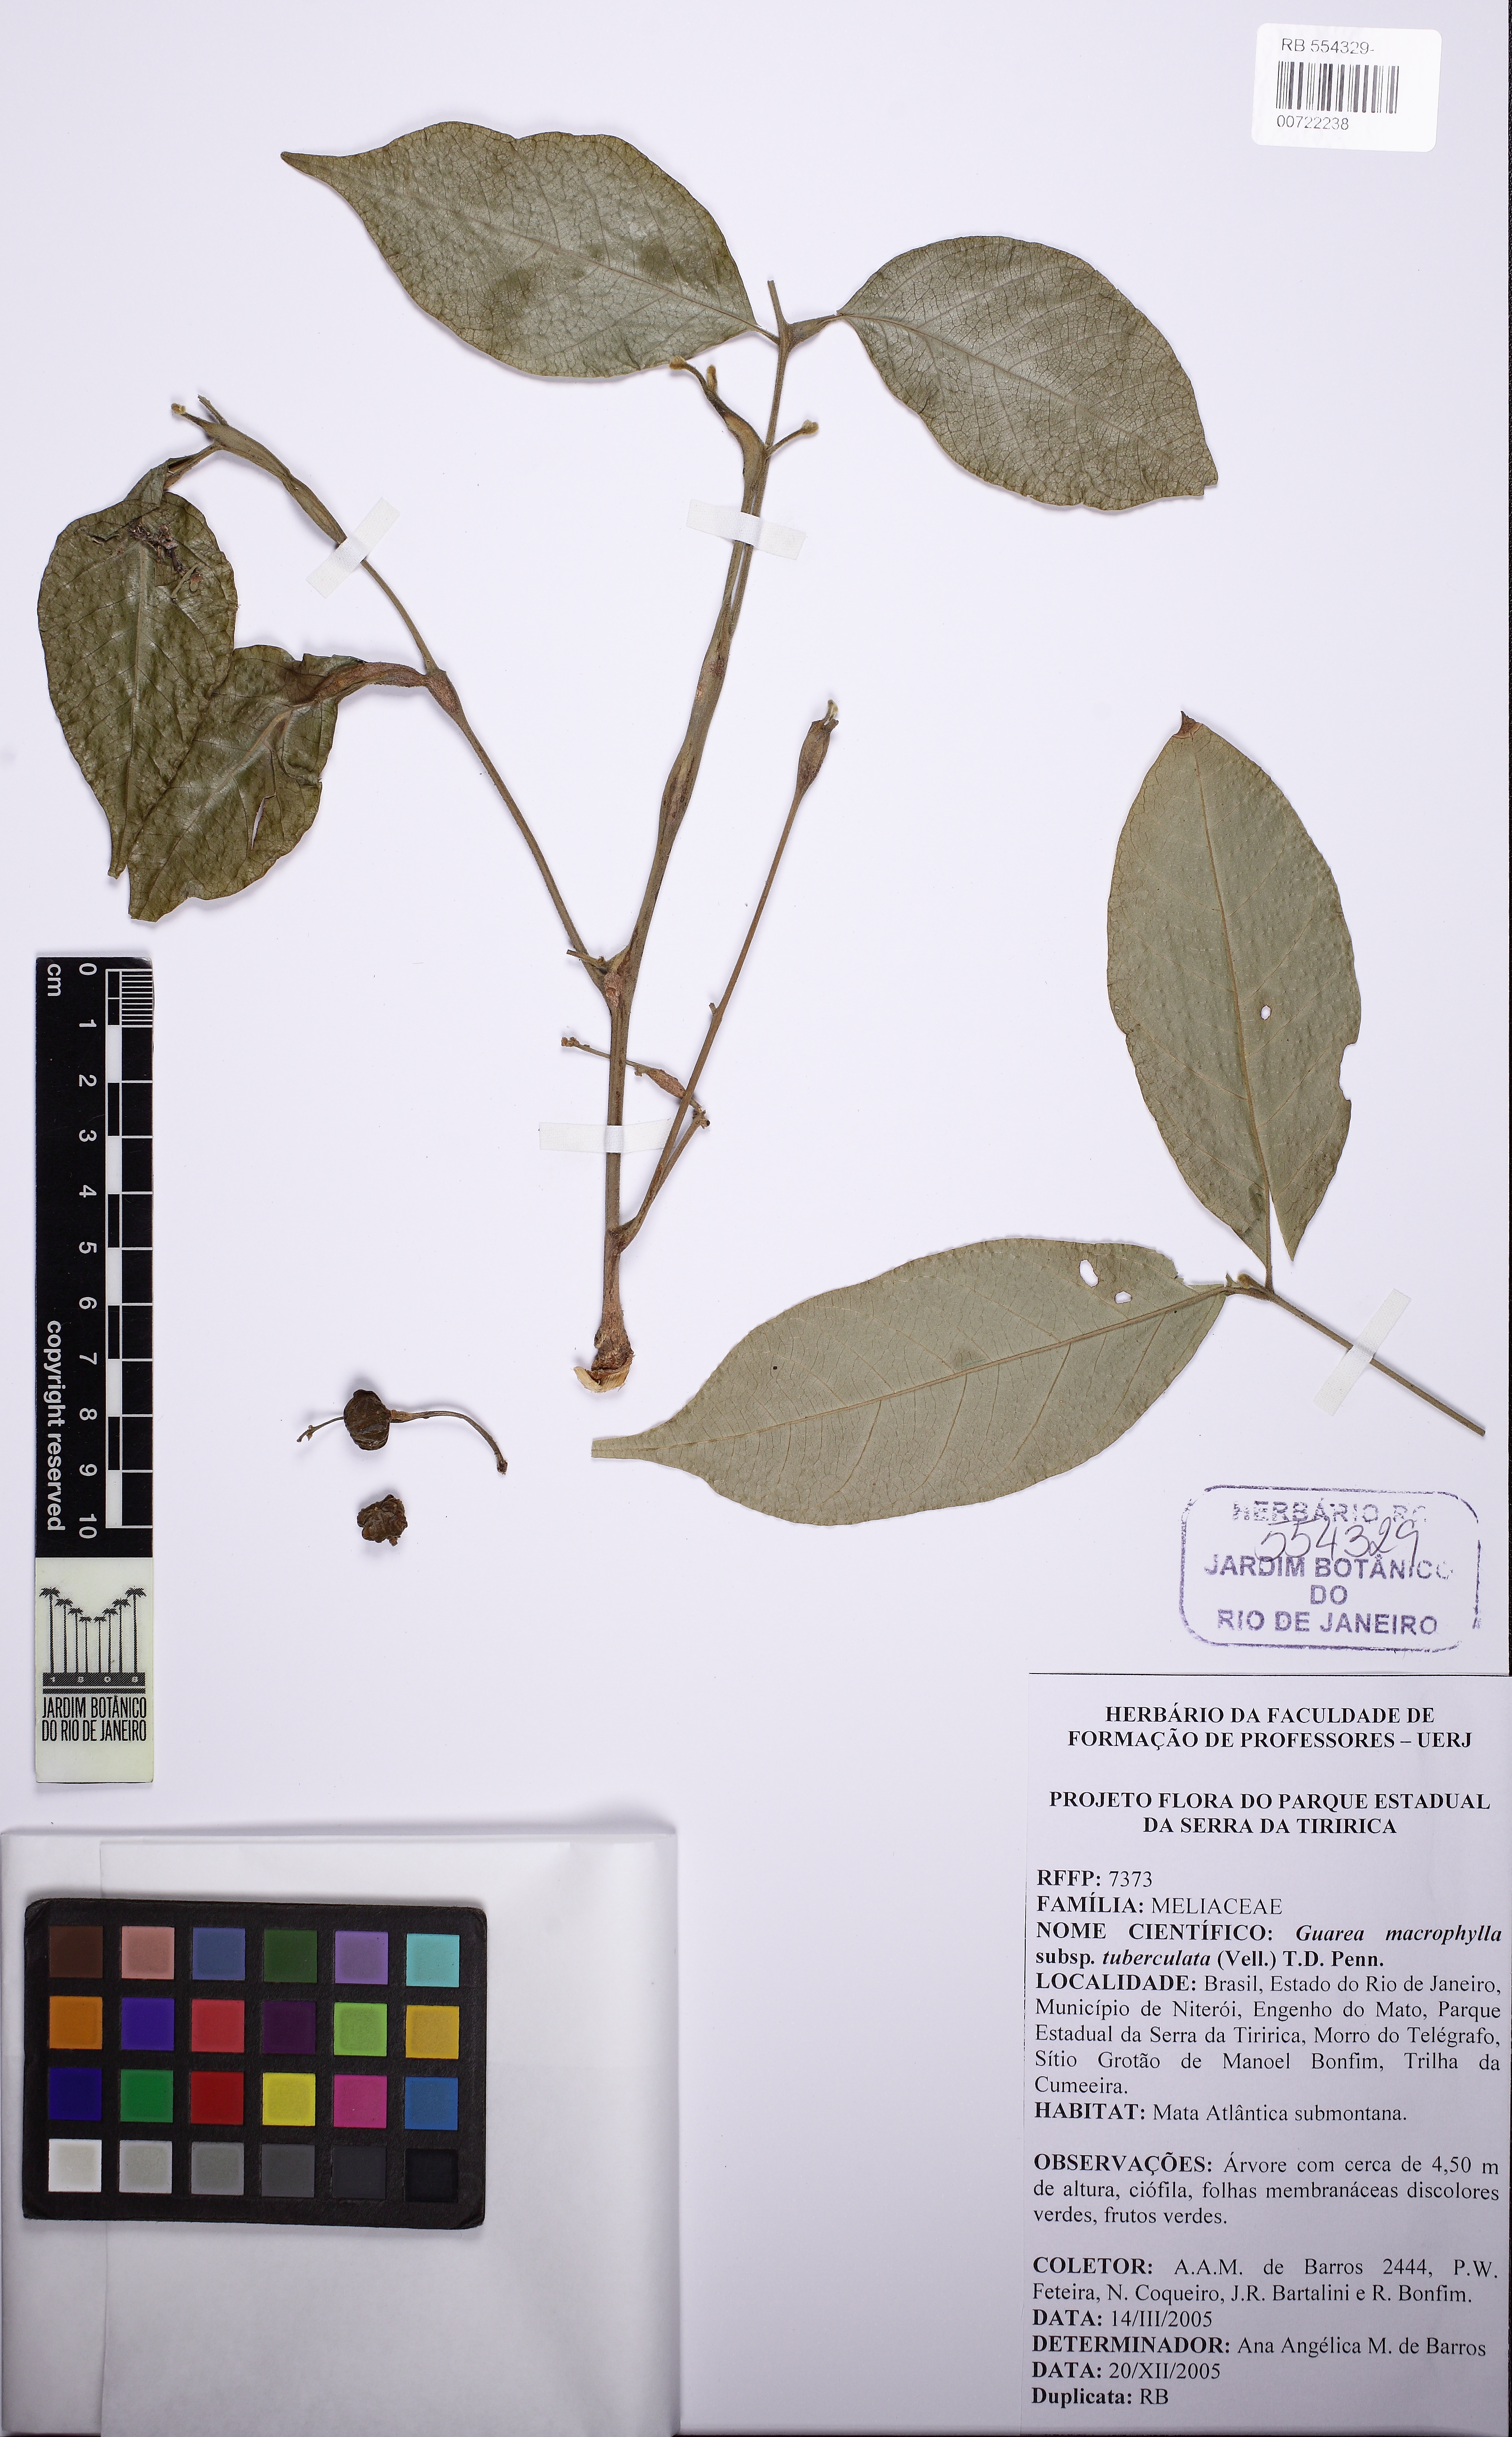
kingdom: Plantae
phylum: Tracheophyta
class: Magnoliopsida
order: Sapindales
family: Meliaceae
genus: Guarea
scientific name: Guarea macrophylla
